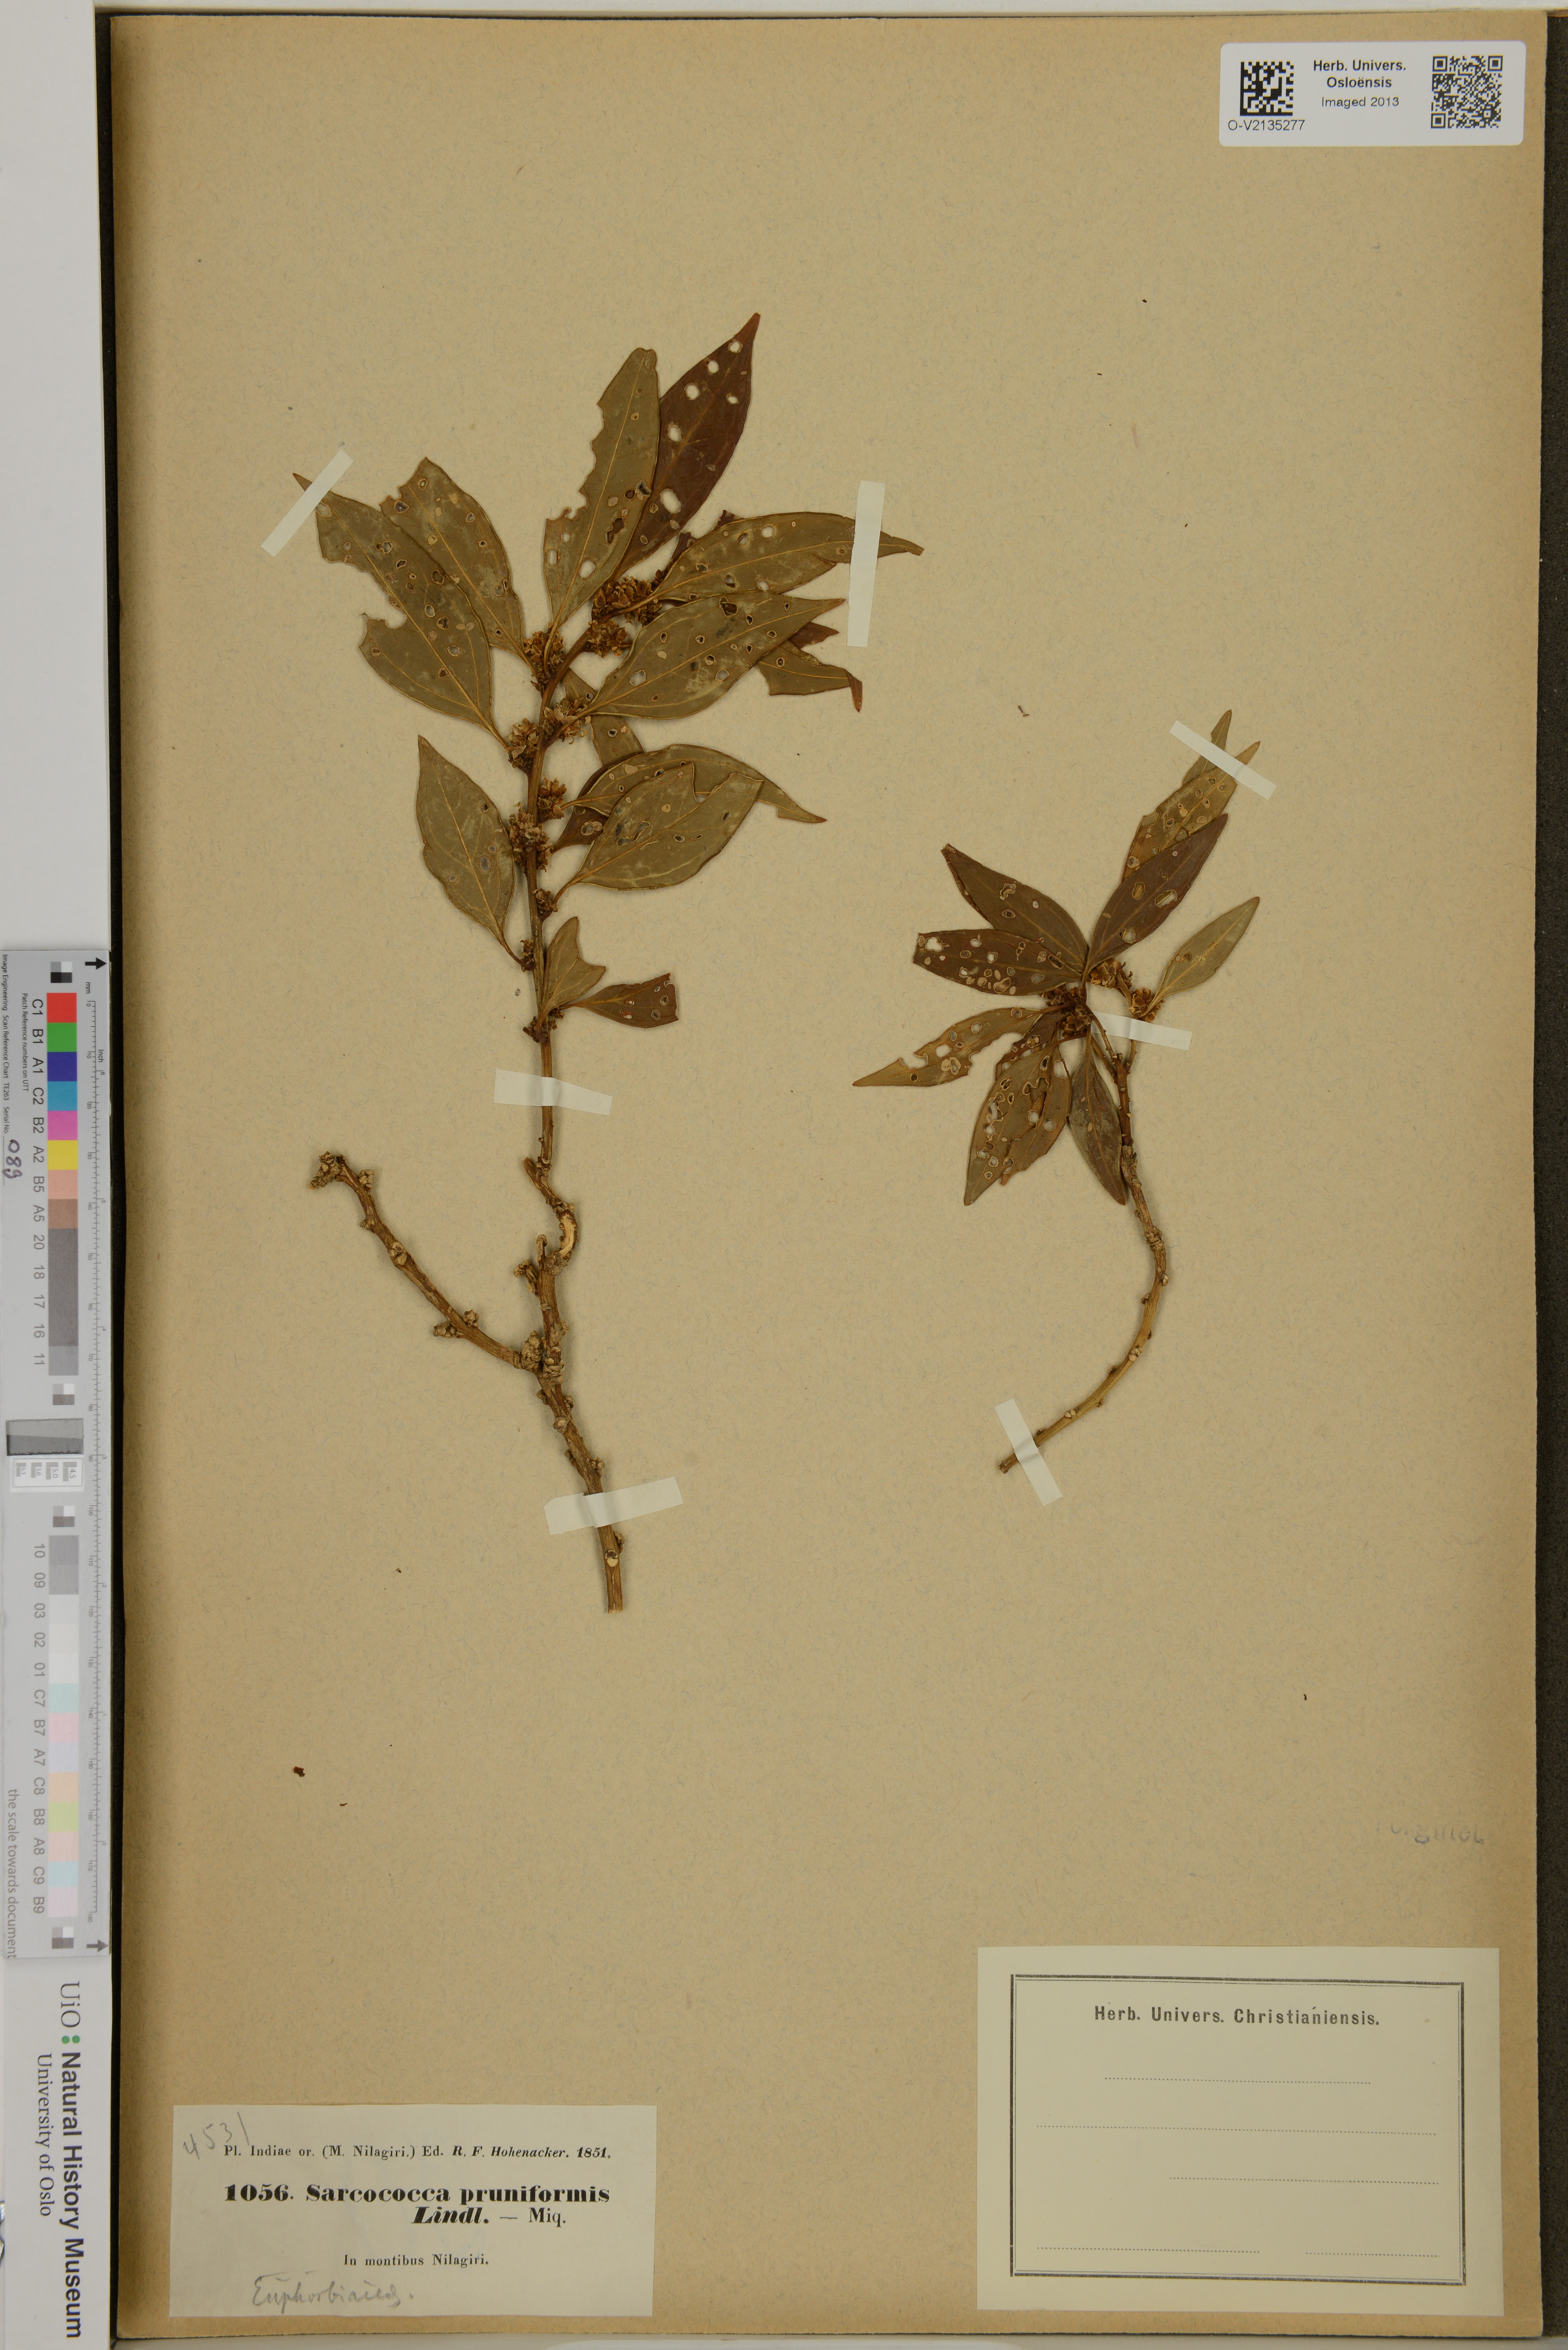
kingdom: Plantae
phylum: Tracheophyta
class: Magnoliopsida
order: Buxales
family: Buxaceae
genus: Sarcococca
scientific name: Sarcococca coriacea
